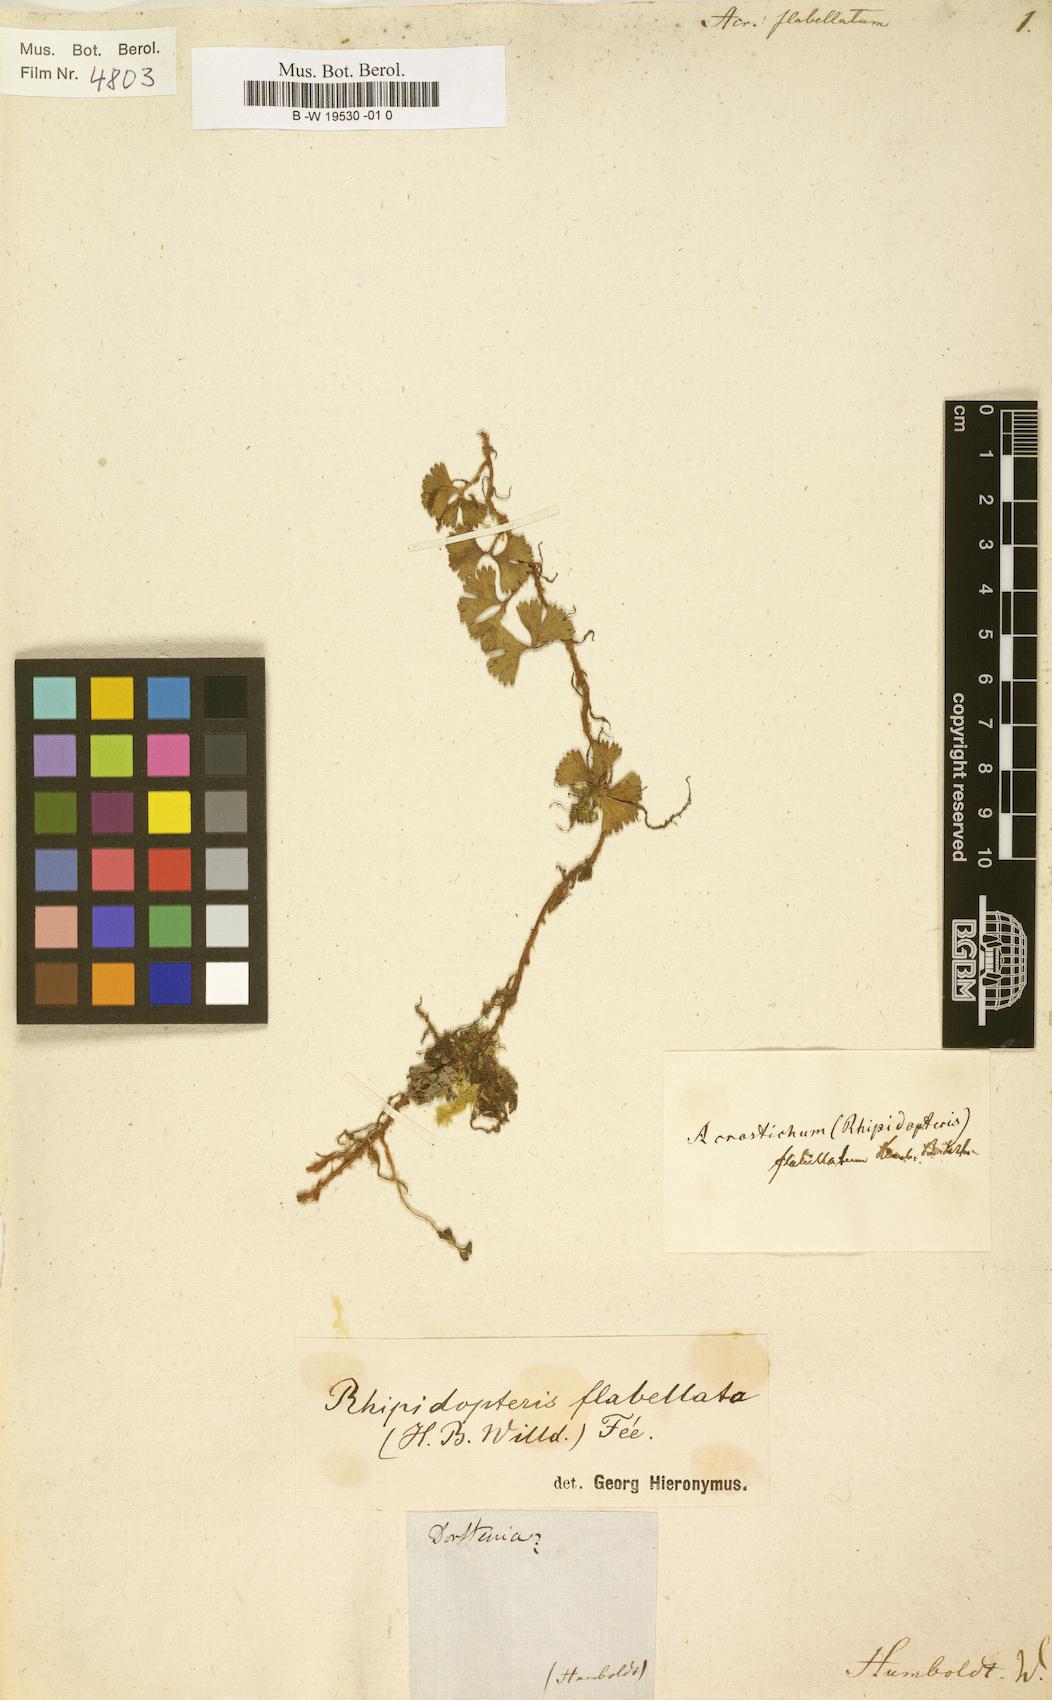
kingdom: Plantae
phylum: Tracheophyta
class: Polypodiopsida
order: Polypodiales
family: Dryopteridaceae
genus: Elaphoglossum
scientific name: Elaphoglossum peltatum
